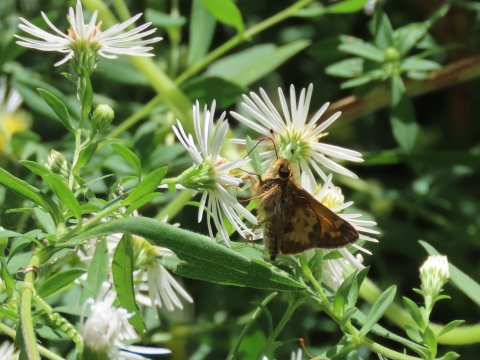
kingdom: Animalia
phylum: Arthropoda
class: Insecta
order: Lepidoptera
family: Hesperiidae
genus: Lon
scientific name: Lon zabulon
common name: Zabulon Skipper
